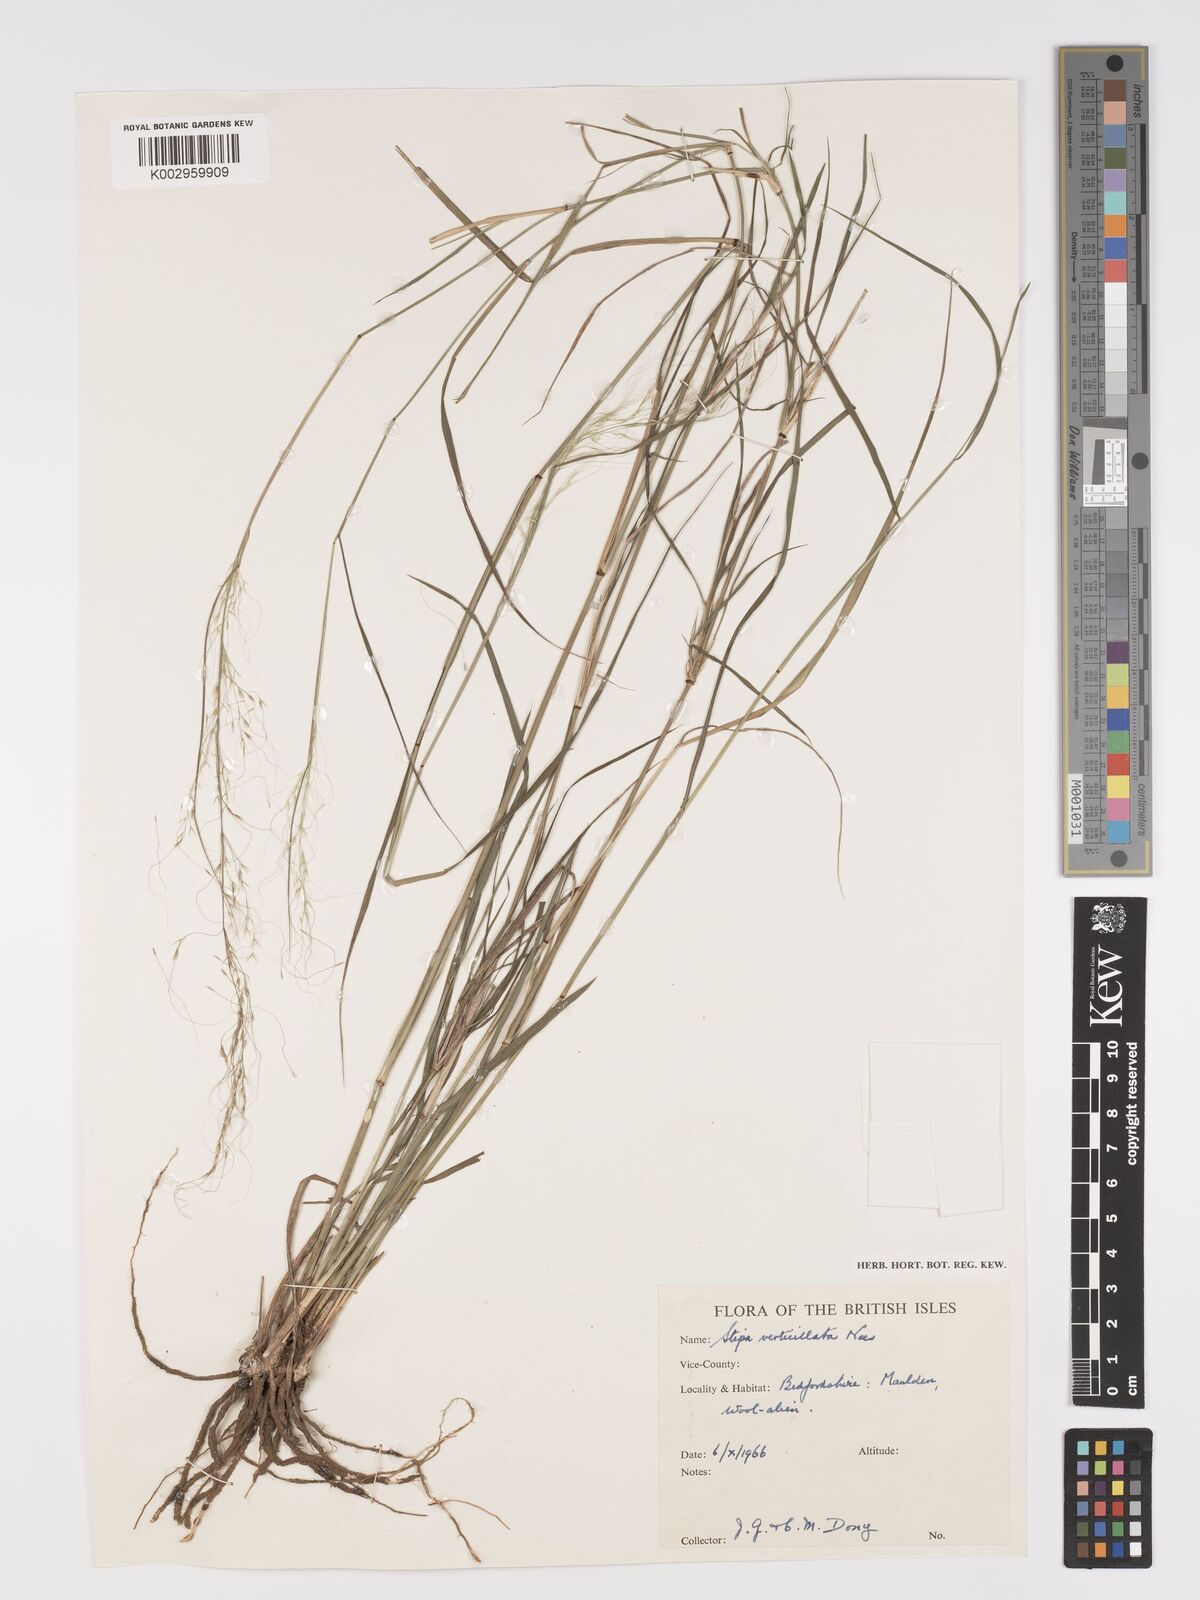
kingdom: Plantae
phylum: Tracheophyta
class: Liliopsida
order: Poales
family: Poaceae
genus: Austrostipa
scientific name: Austrostipa verticillata
